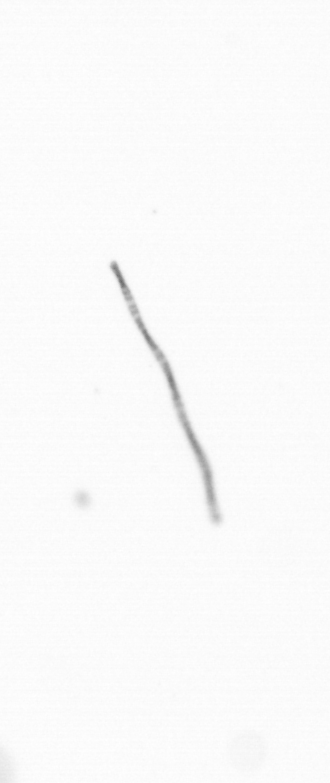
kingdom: Chromista
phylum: Ochrophyta
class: Bacillariophyceae
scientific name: Bacillariophyceae
